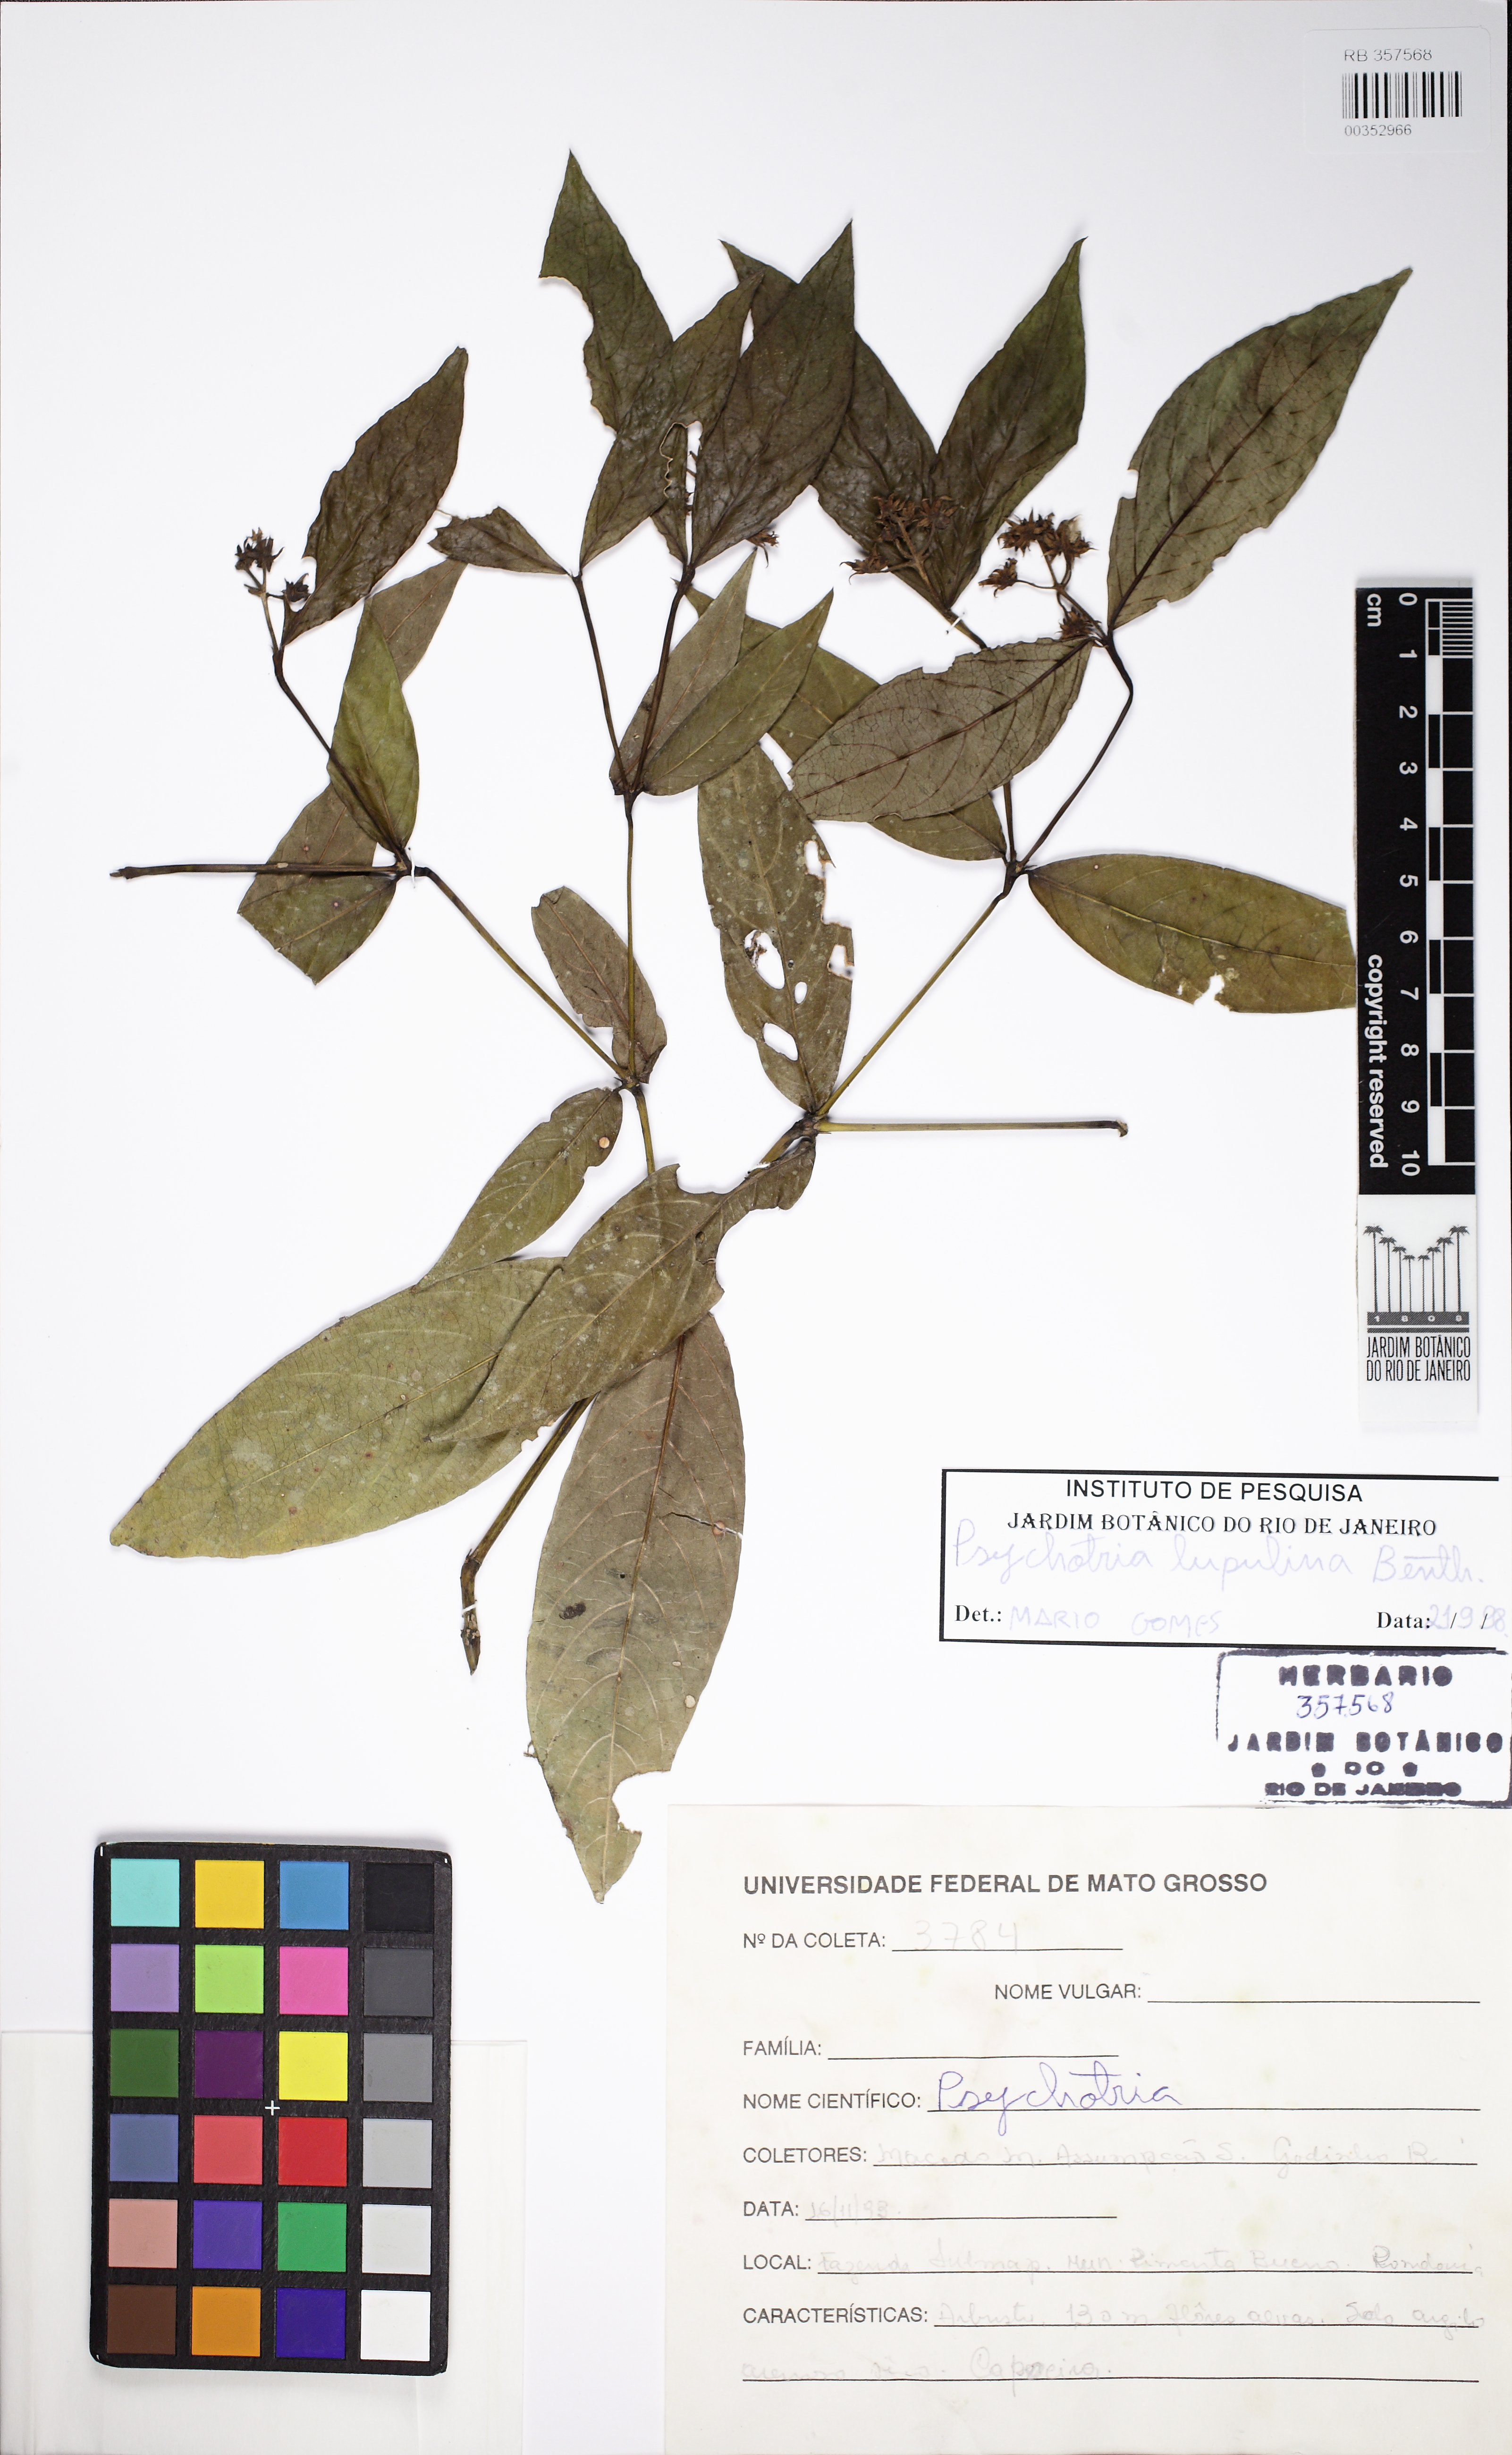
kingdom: Plantae
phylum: Tracheophyta
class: Magnoliopsida
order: Gentianales
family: Rubiaceae
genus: Palicourea
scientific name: Palicourea justiciifolia
